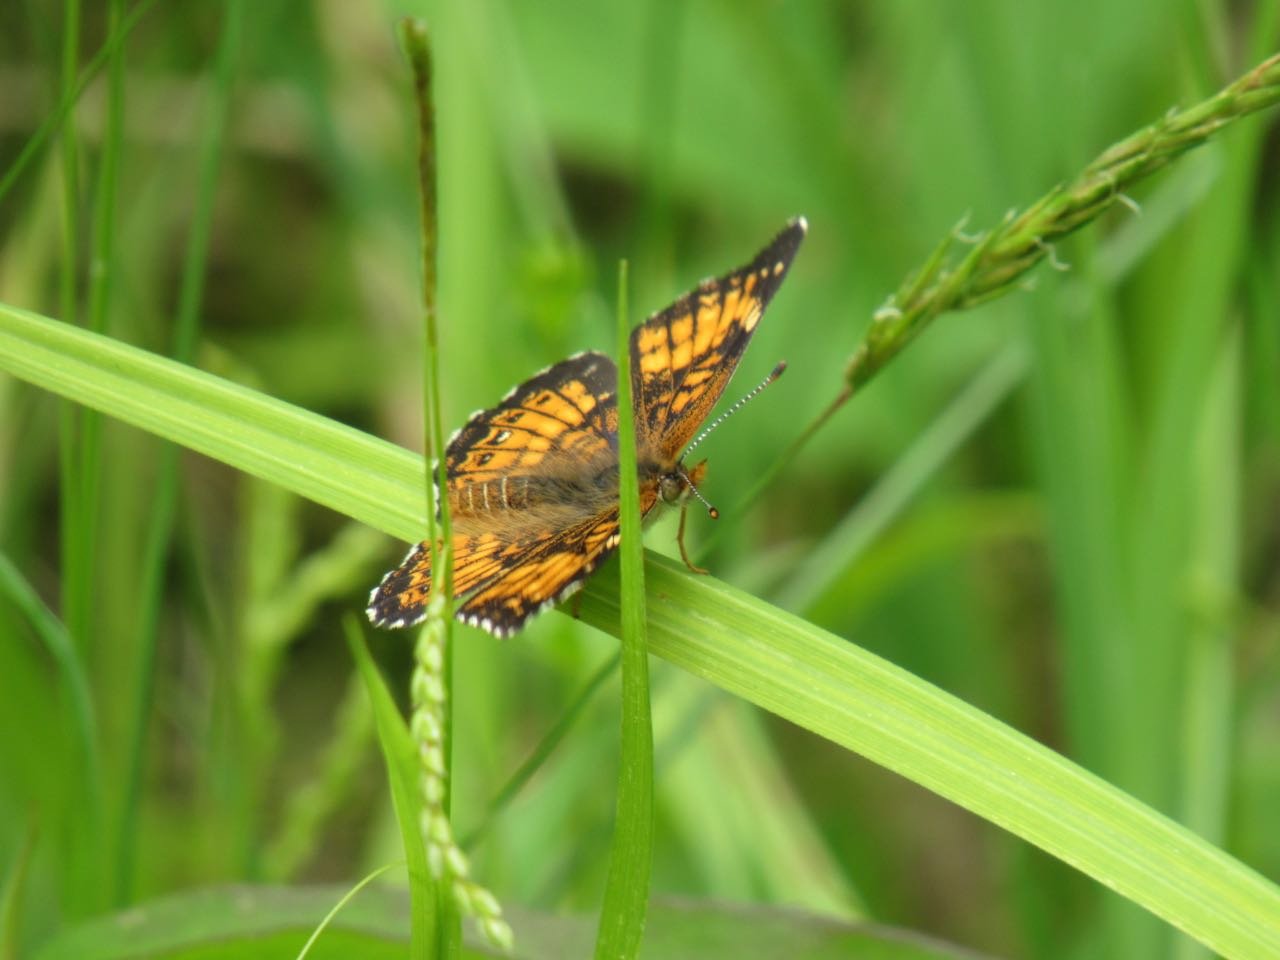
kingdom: Animalia
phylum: Arthropoda
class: Insecta
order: Lepidoptera
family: Nymphalidae
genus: Chlosyne
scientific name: Chlosyne harrisii
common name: Harris's Checkerspot
